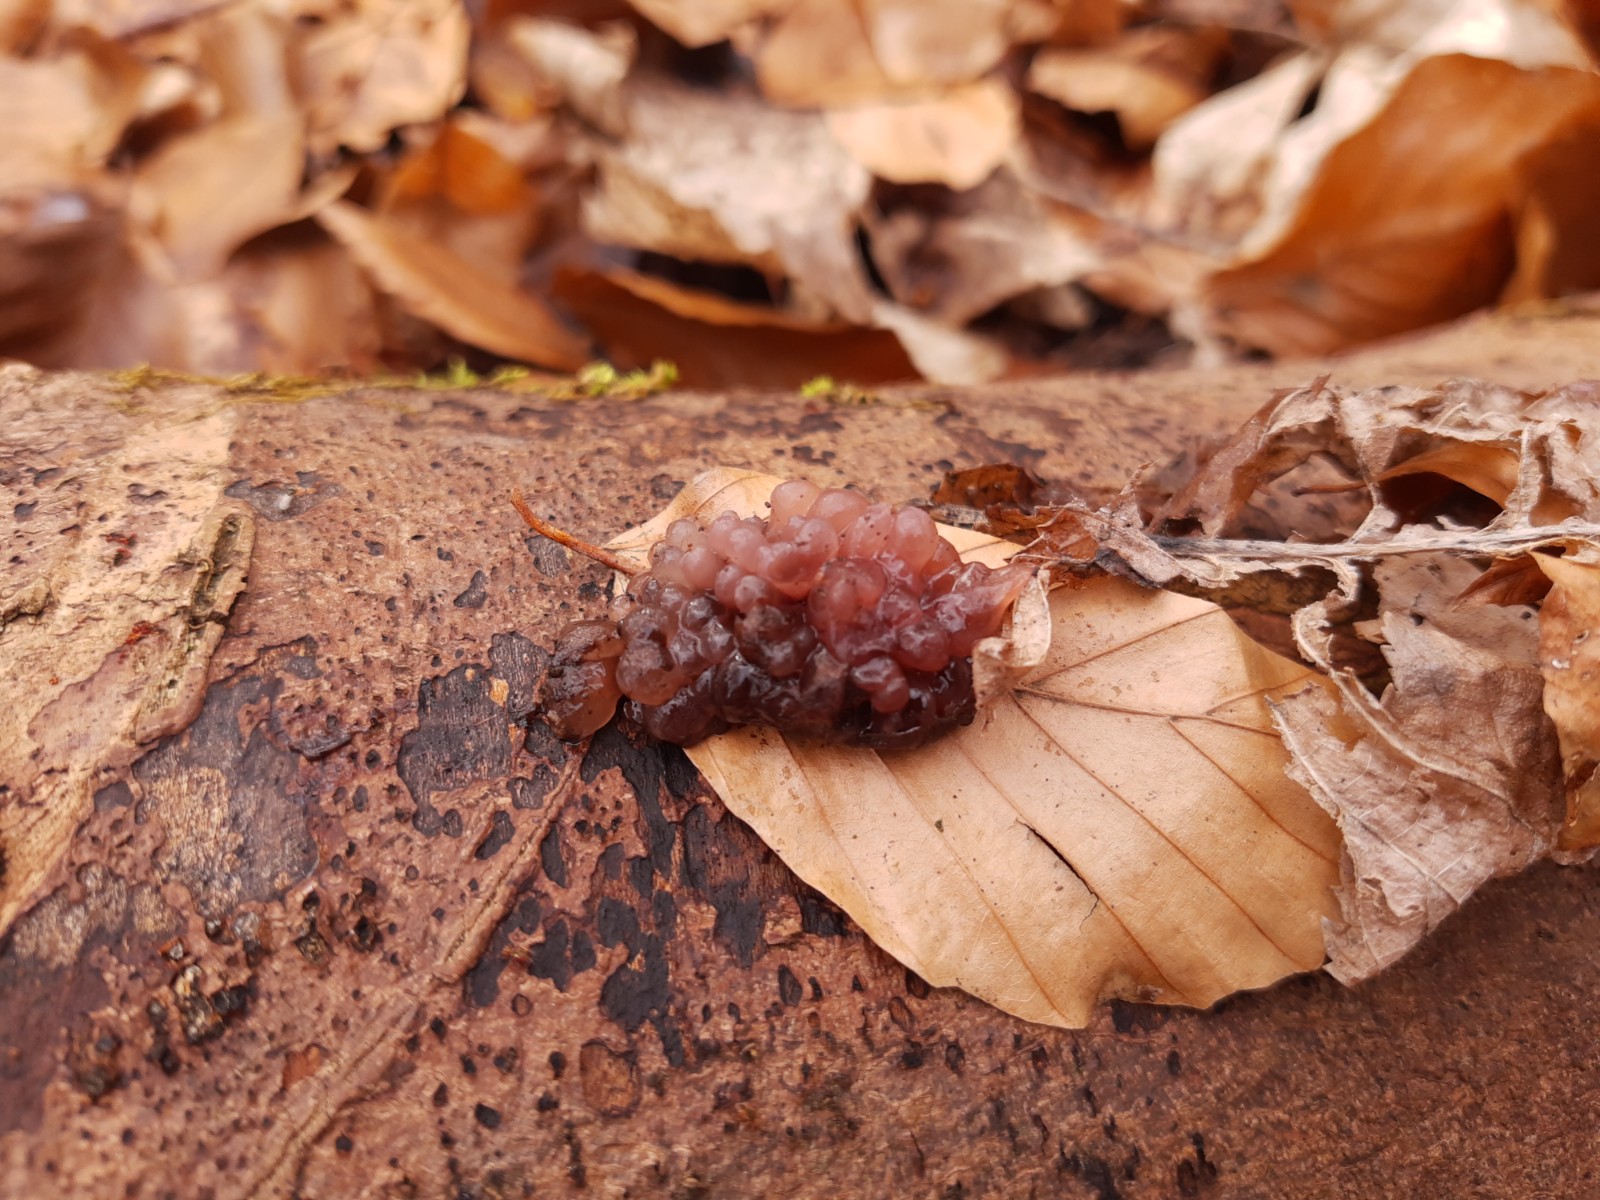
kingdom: Fungi
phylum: Ascomycota
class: Leotiomycetes
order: Helotiales
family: Gelatinodiscaceae
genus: Ascotremella
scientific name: Ascotremella faginea
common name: hjerne-bævreskive
